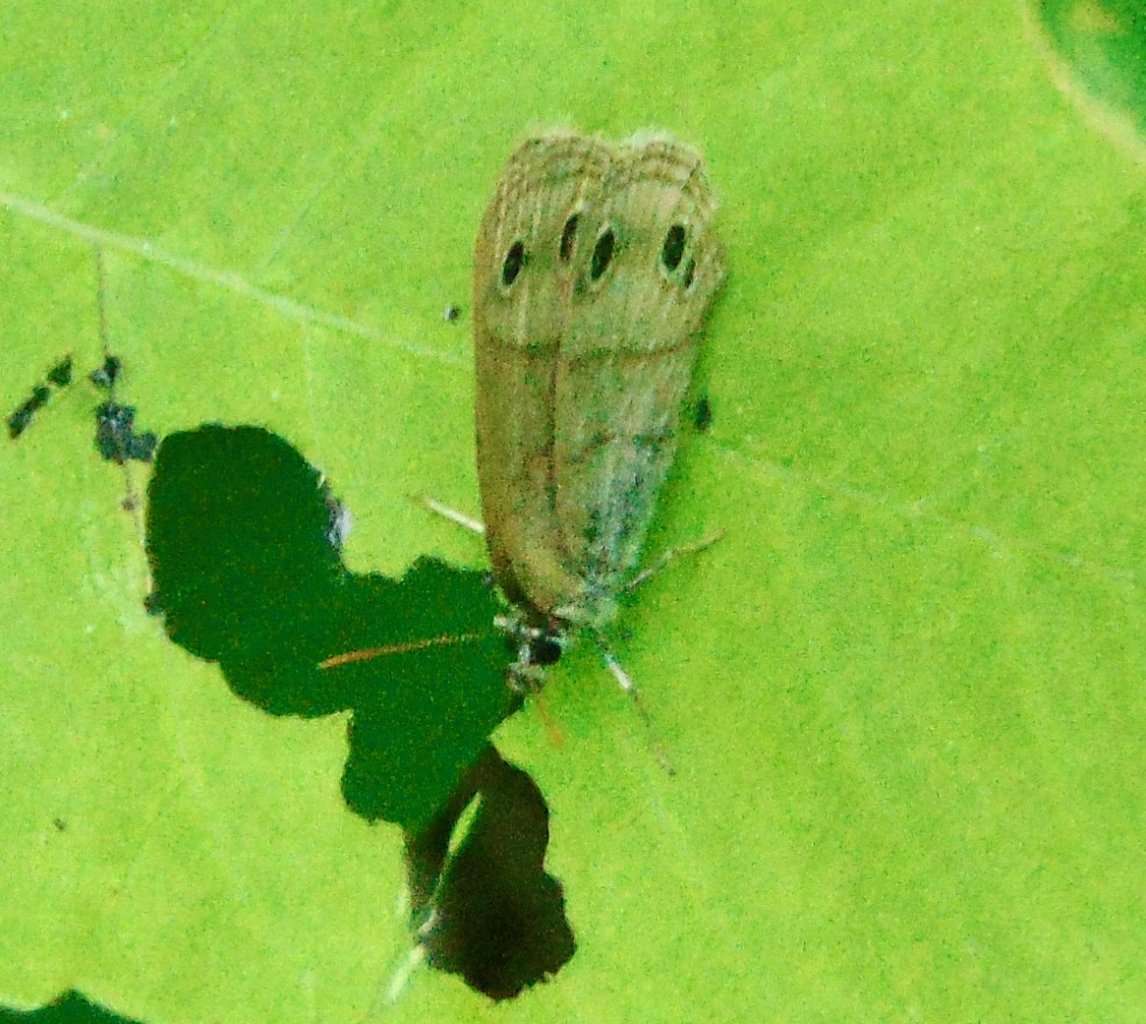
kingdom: Animalia
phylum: Arthropoda
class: Insecta
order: Lepidoptera
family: Nymphalidae
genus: Euptychia
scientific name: Euptychia cymela
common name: Little Wood Satyr
